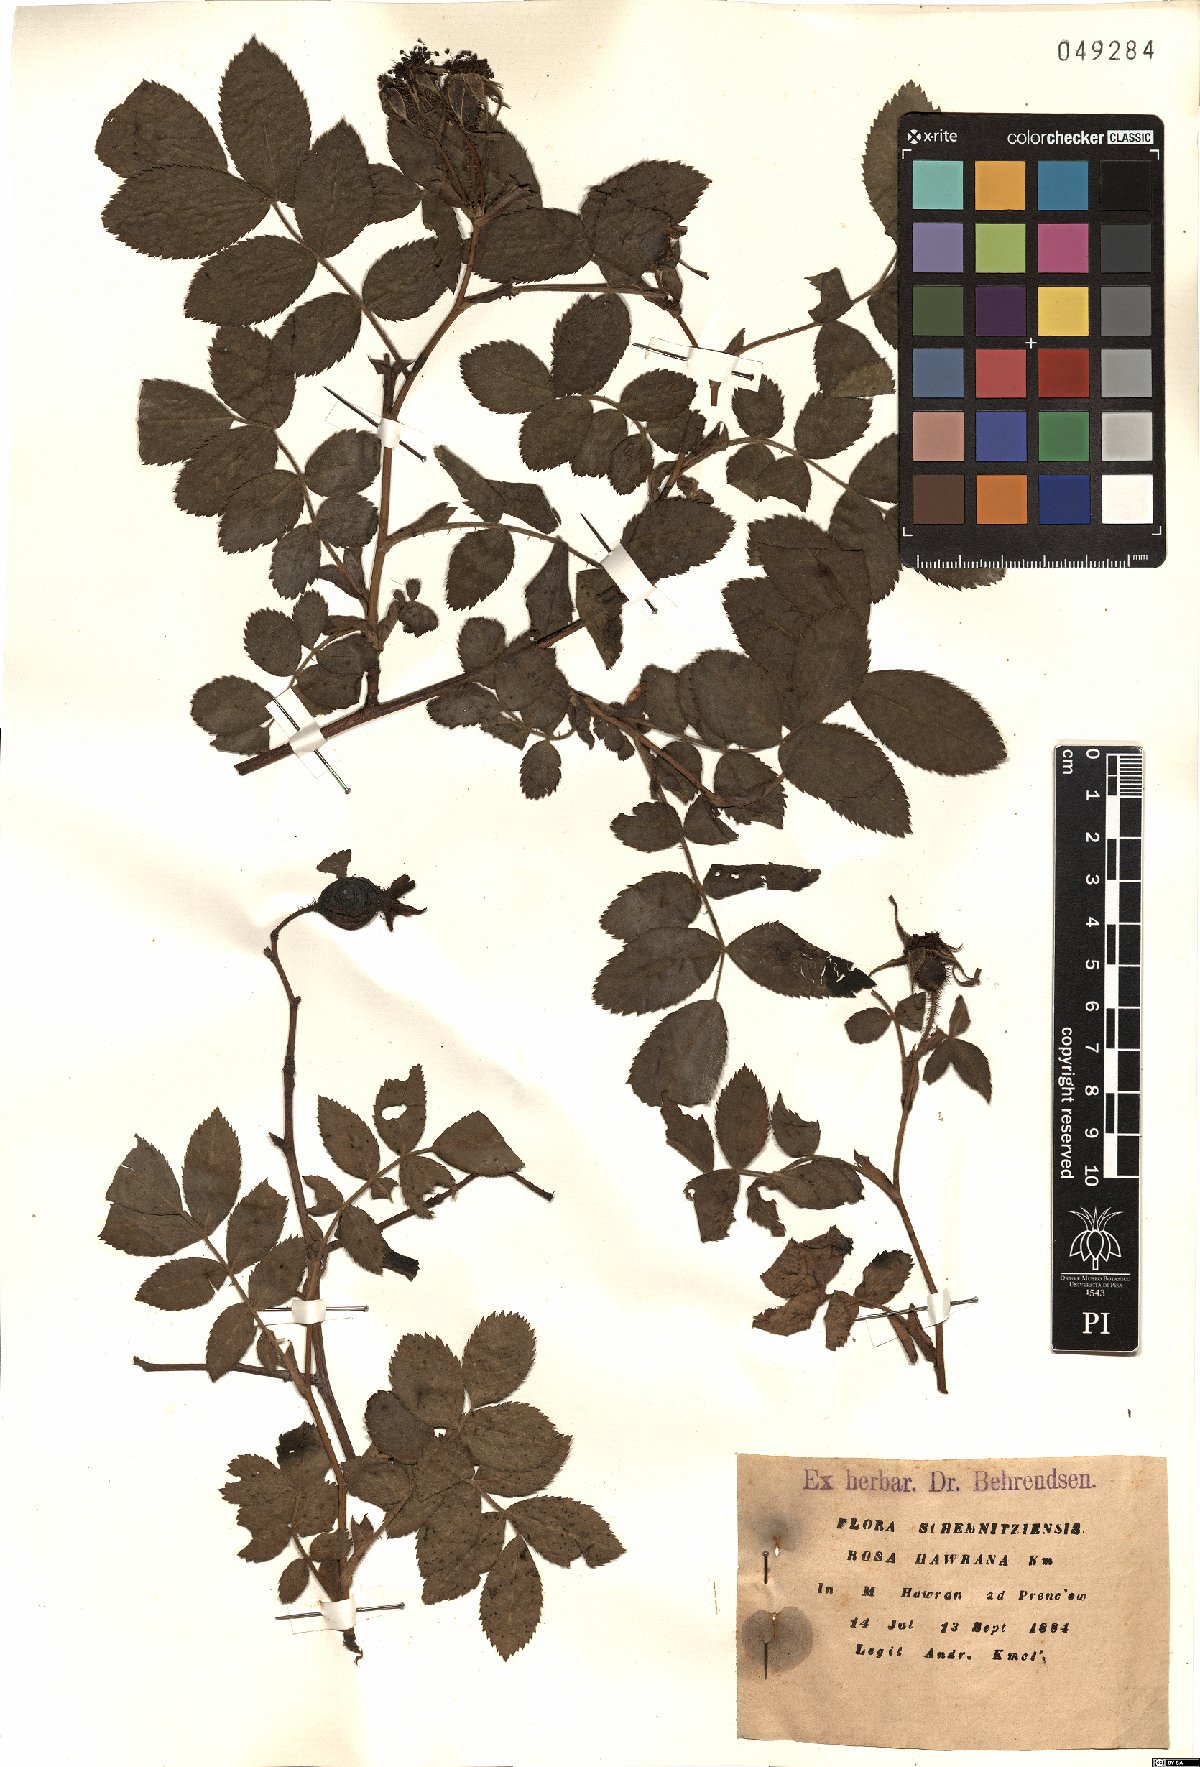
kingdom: Plantae
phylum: Tracheophyta
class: Magnoliopsida
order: Rosales
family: Rosaceae
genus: Rosa
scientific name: Rosa pseudoscabriuscula
